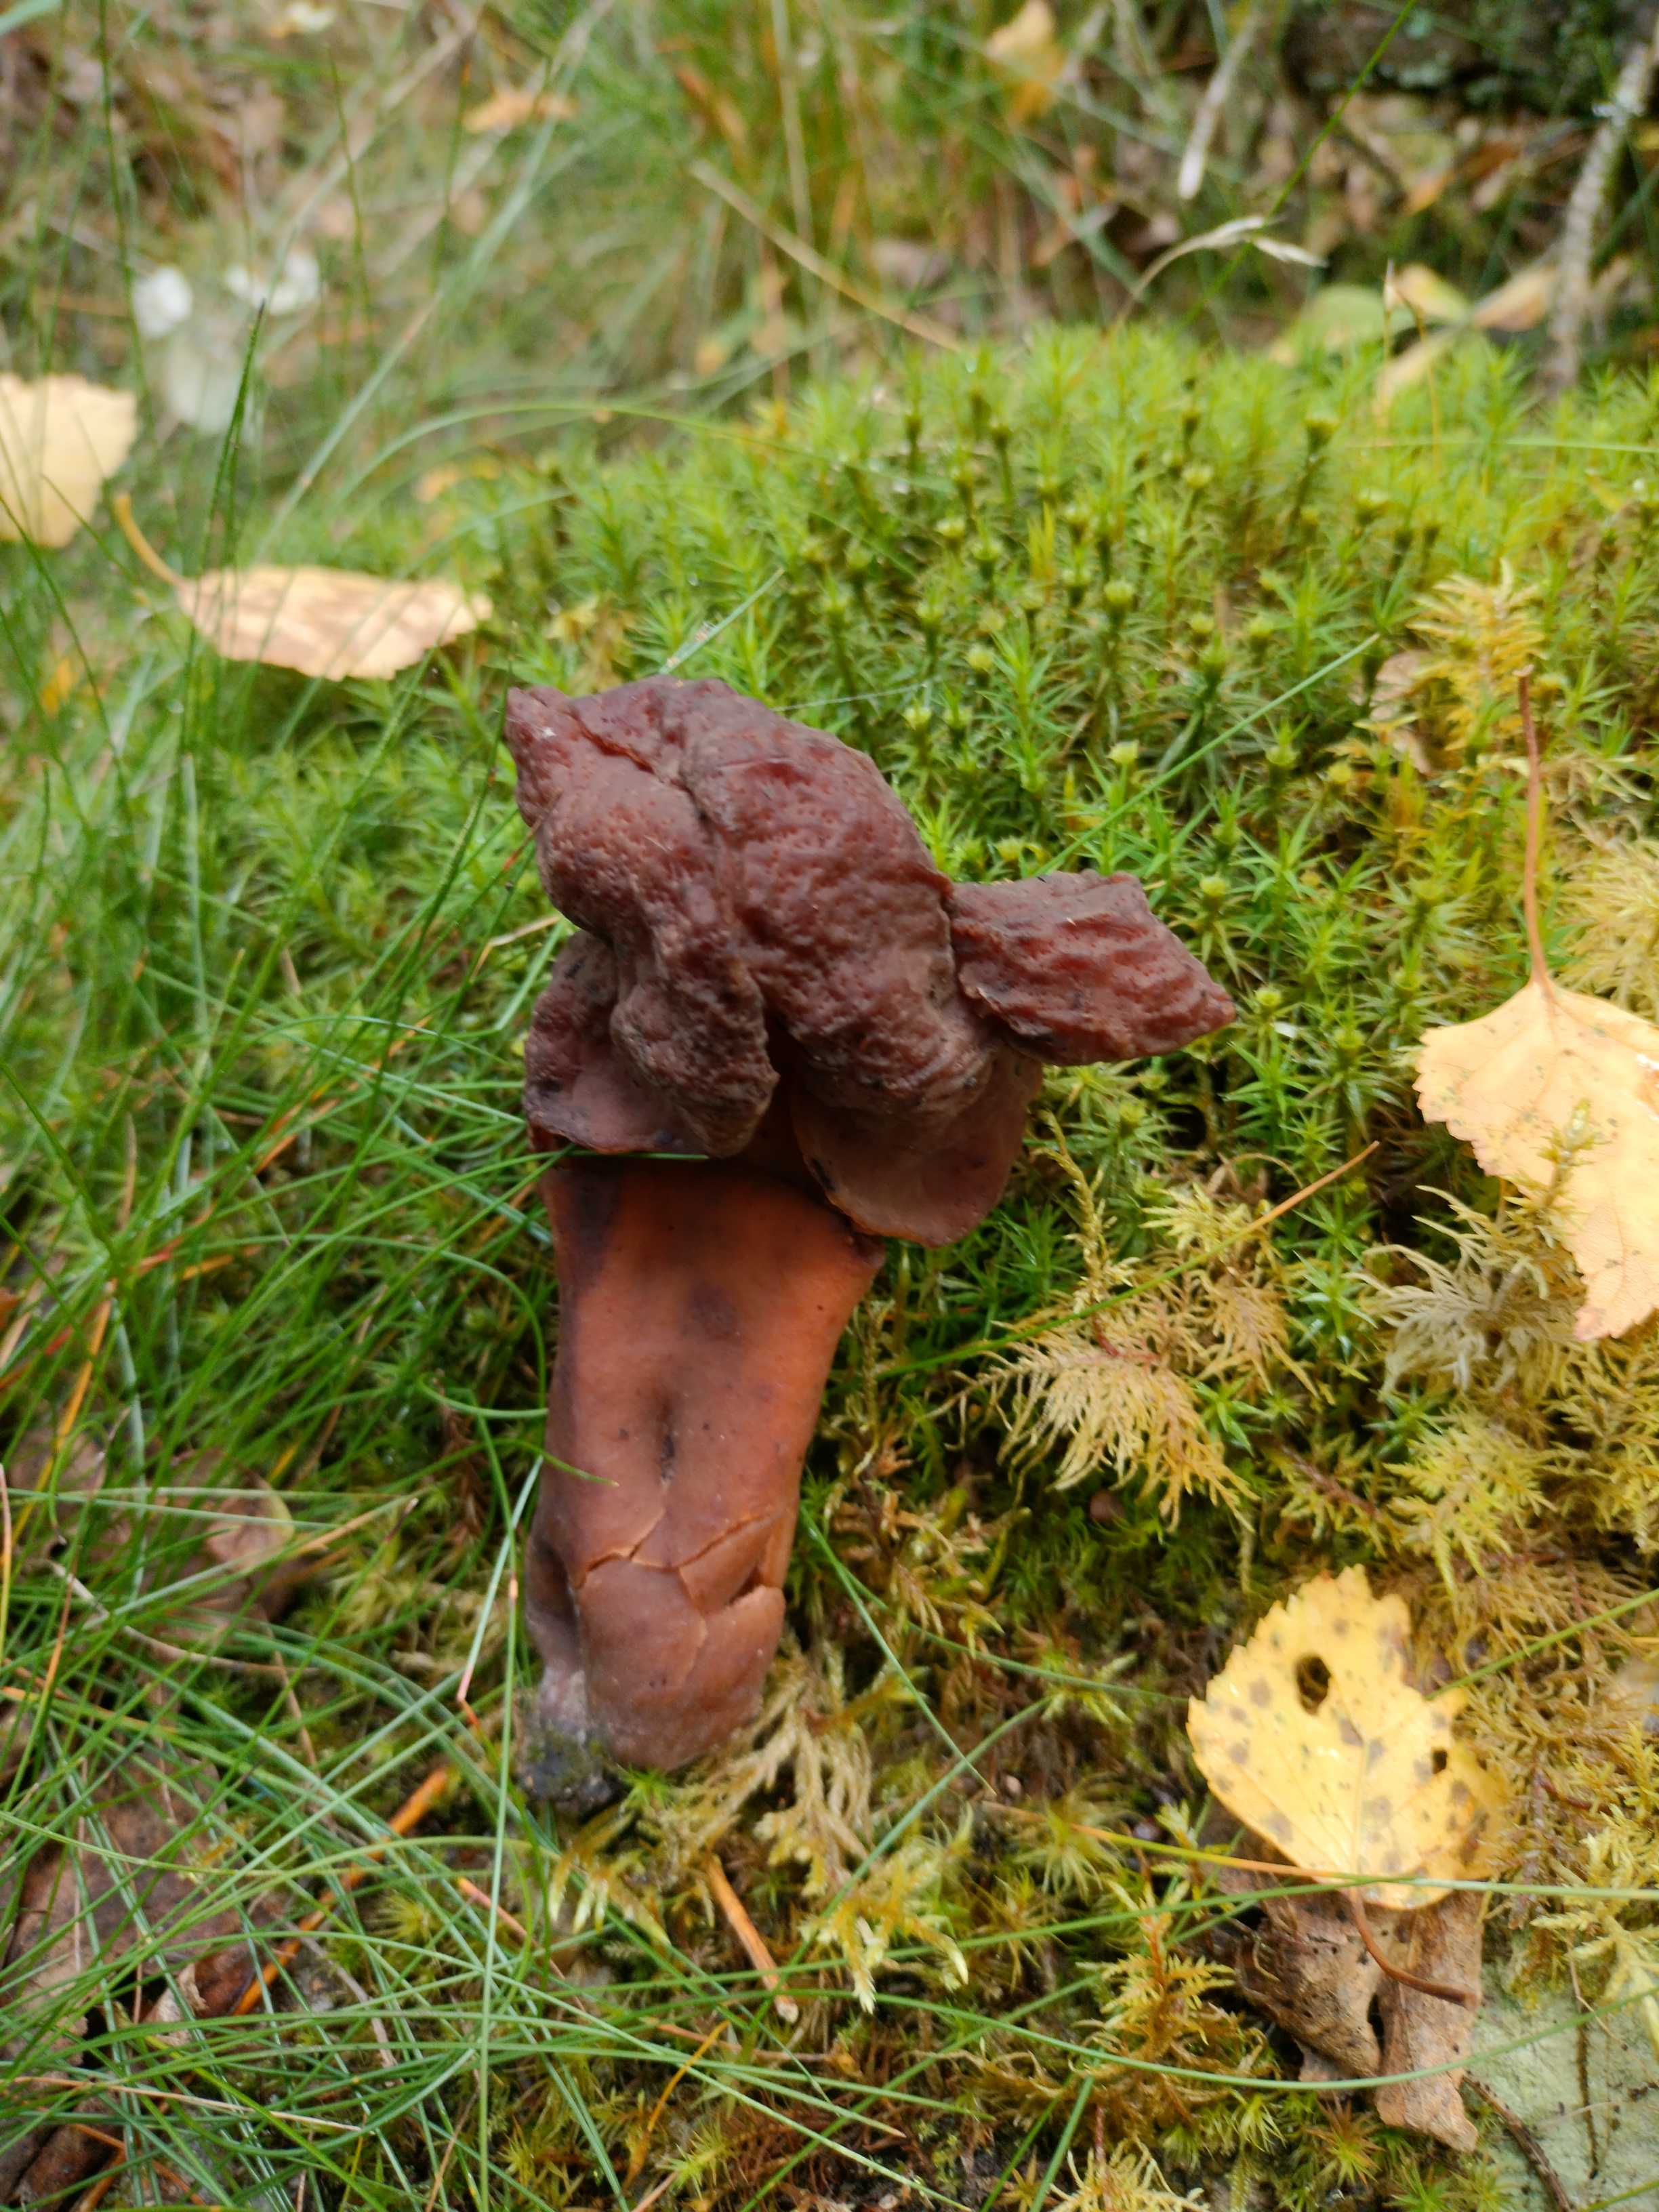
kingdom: Fungi
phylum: Ascomycota
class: Pezizomycetes
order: Pezizales
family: Discinaceae
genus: Gyromitra
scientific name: Gyromitra infula
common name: bispehue-stenmorkel
